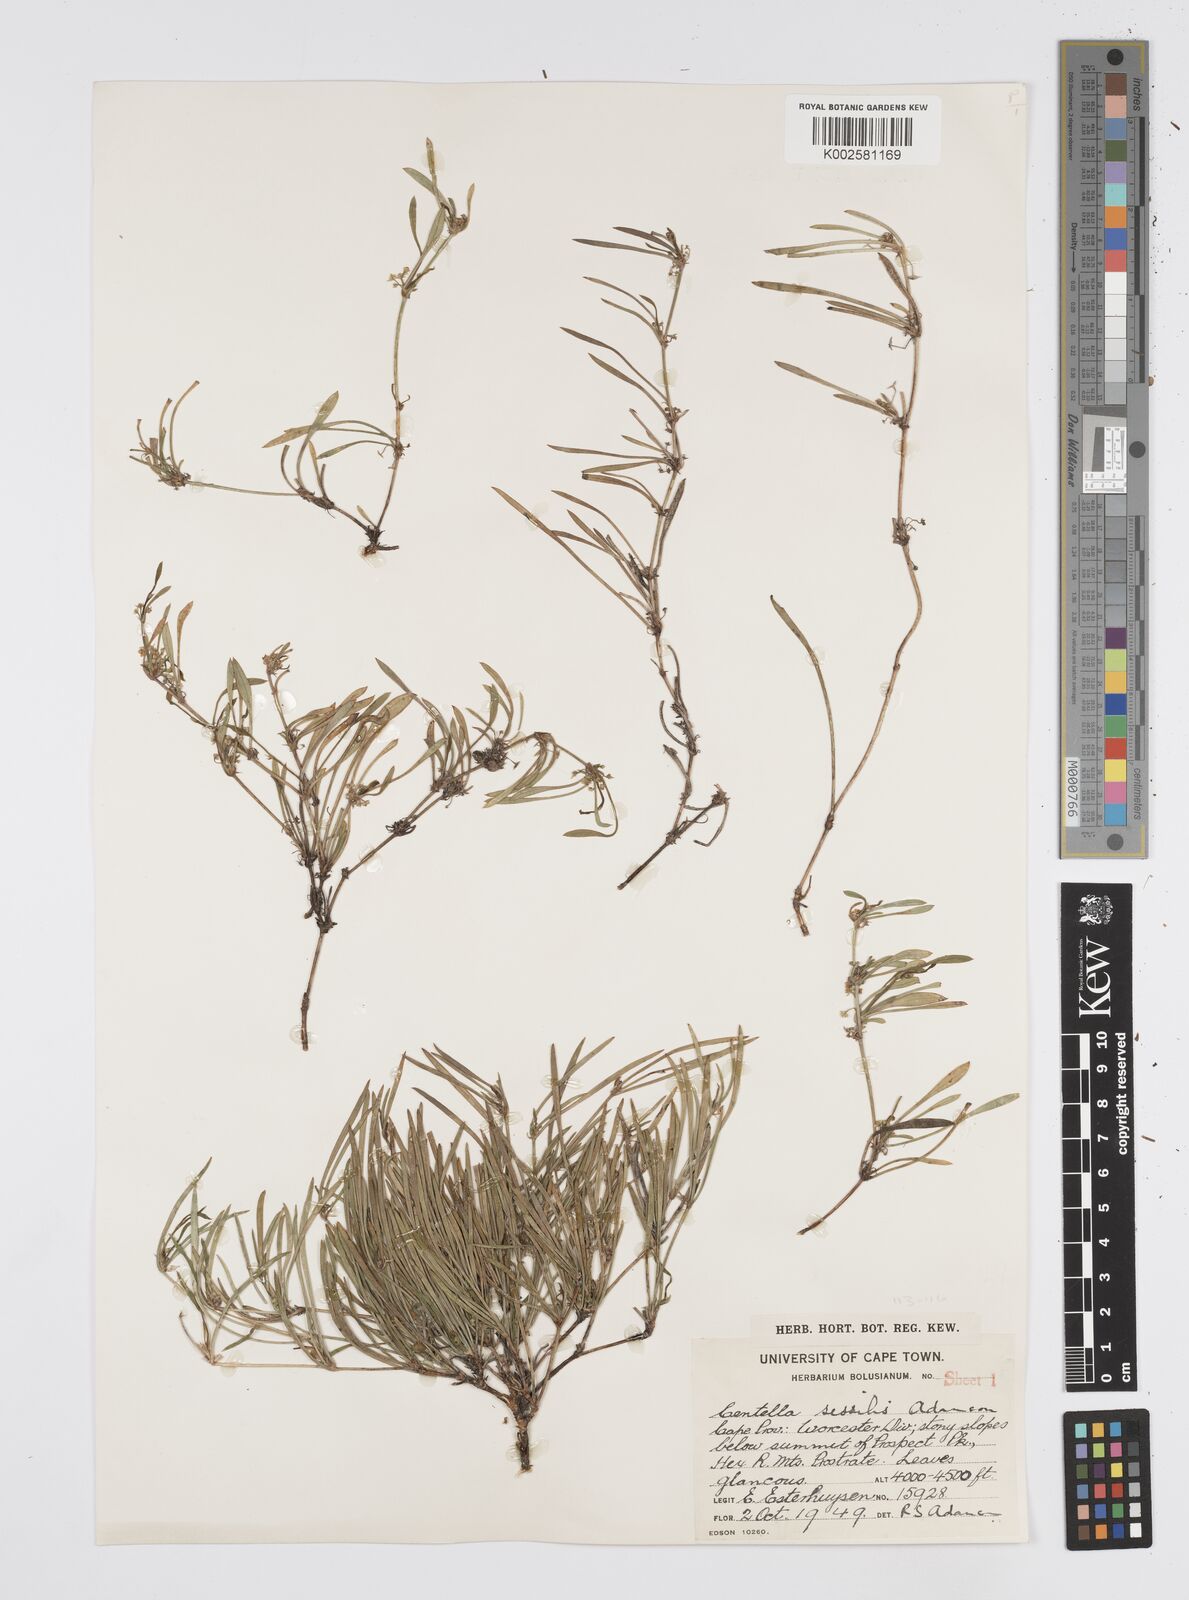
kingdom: Plantae
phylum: Tracheophyta
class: Magnoliopsida
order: Apiales
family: Apiaceae
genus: Centella
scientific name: Centella sessilis
